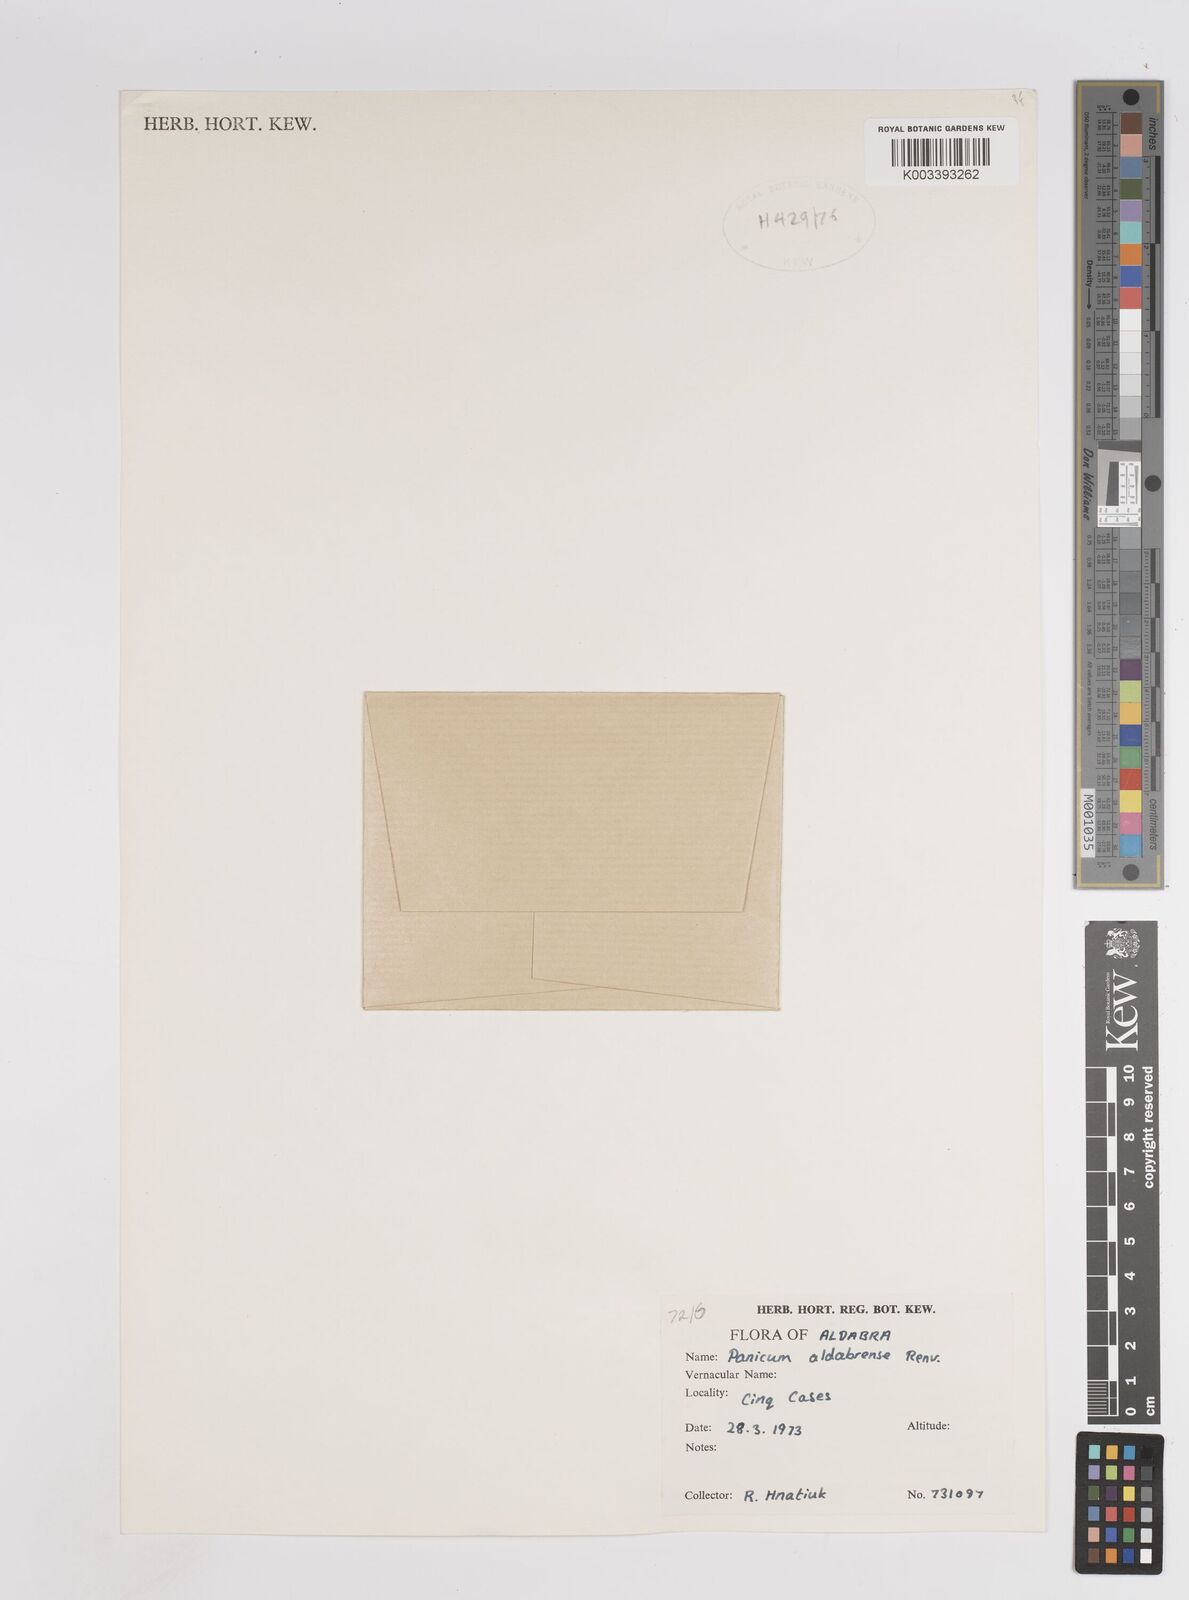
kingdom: Plantae
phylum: Tracheophyta
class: Liliopsida
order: Poales
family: Poaceae
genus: Panicum
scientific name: Panicum aldabrense
